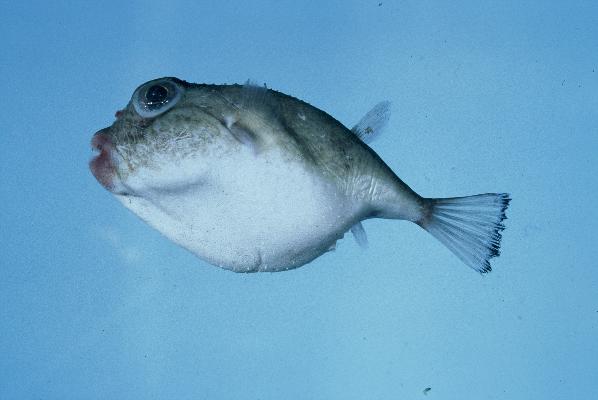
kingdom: Animalia
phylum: Chordata
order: Tetraodontiformes
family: Tetraodontidae
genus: Tylerius
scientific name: Tylerius spinosissimus
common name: Spiny blaasop
